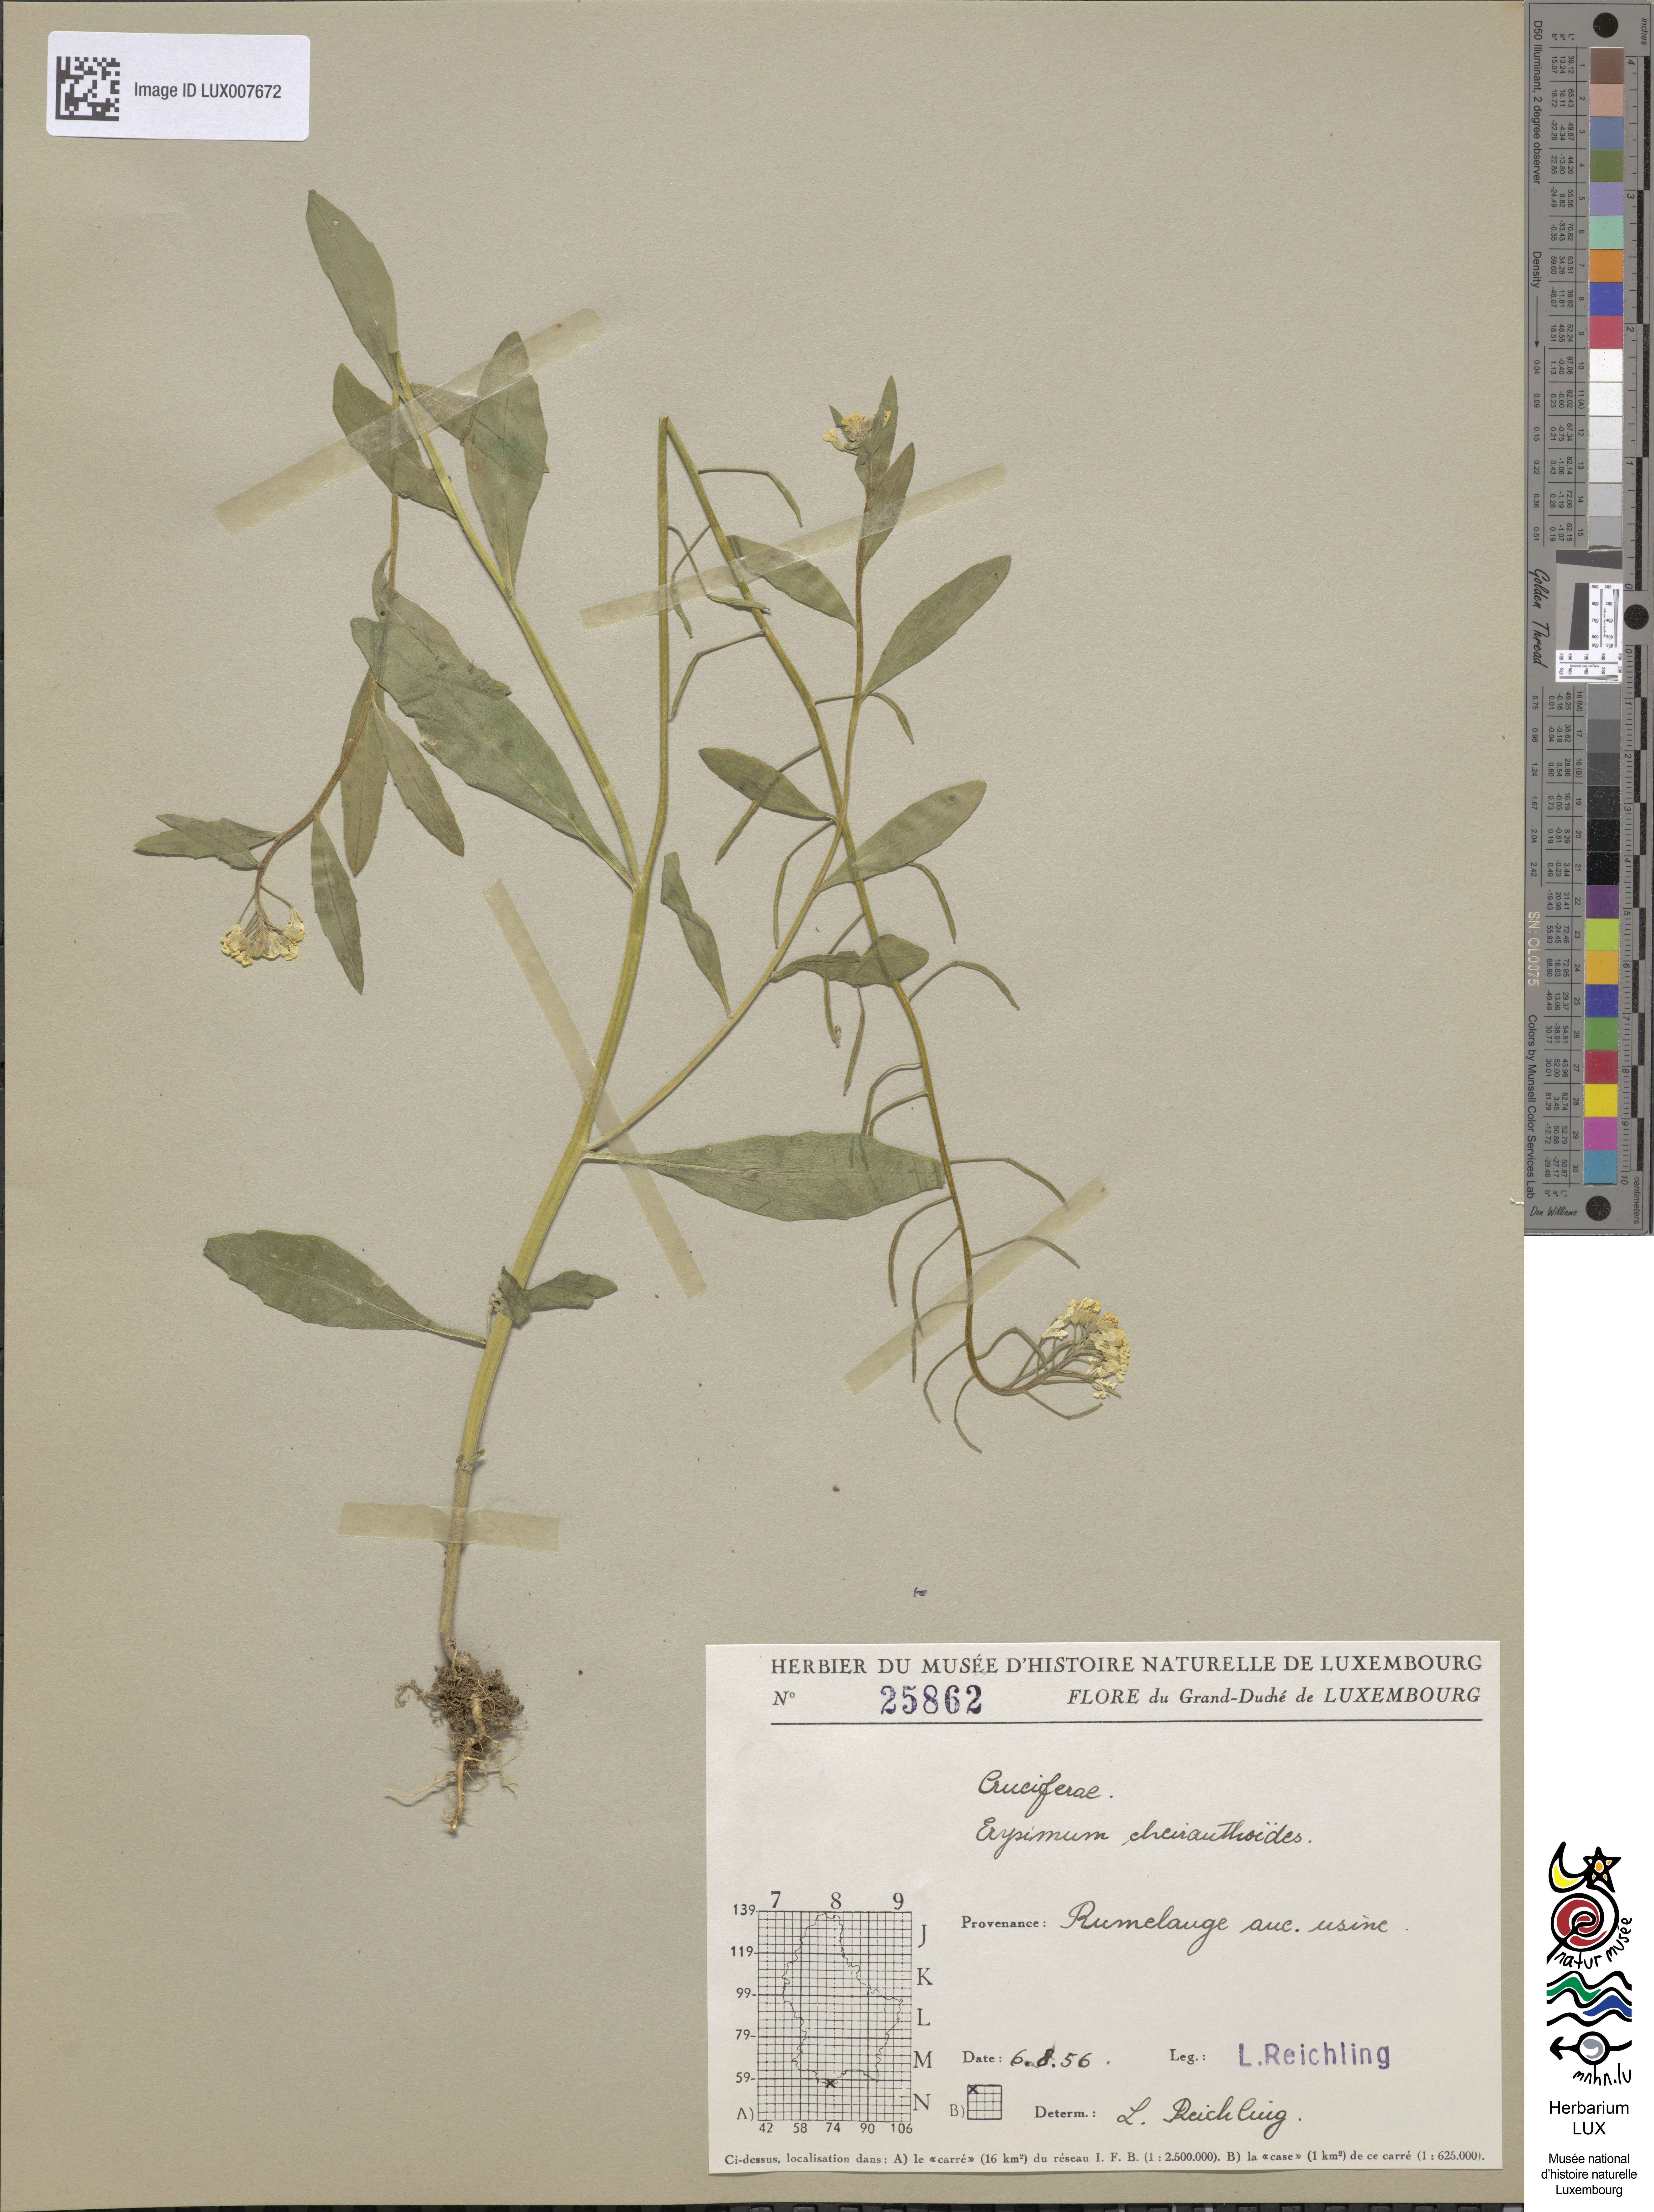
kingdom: Plantae
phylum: Tracheophyta
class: Magnoliopsida
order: Brassicales
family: Brassicaceae
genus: Erysimum
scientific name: Erysimum cheiranthoides
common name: Treacle mustard
